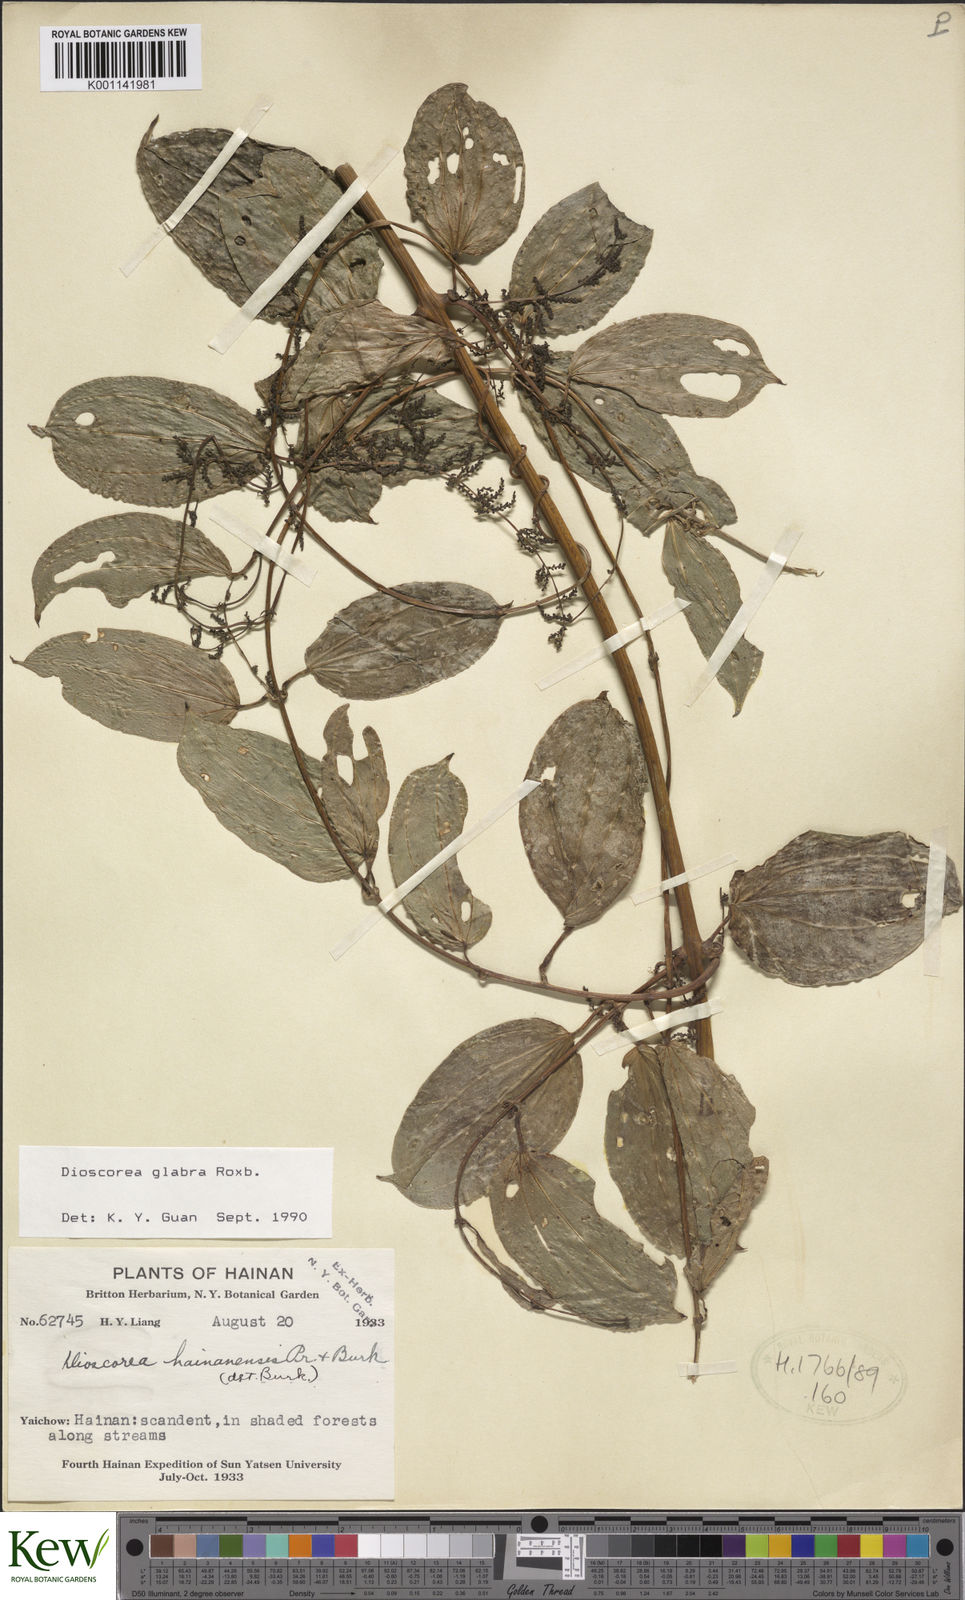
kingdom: Plantae
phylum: Tracheophyta
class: Liliopsida
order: Dioscoreales
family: Dioscoreaceae
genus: Dioscorea
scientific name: Dioscorea glabra
